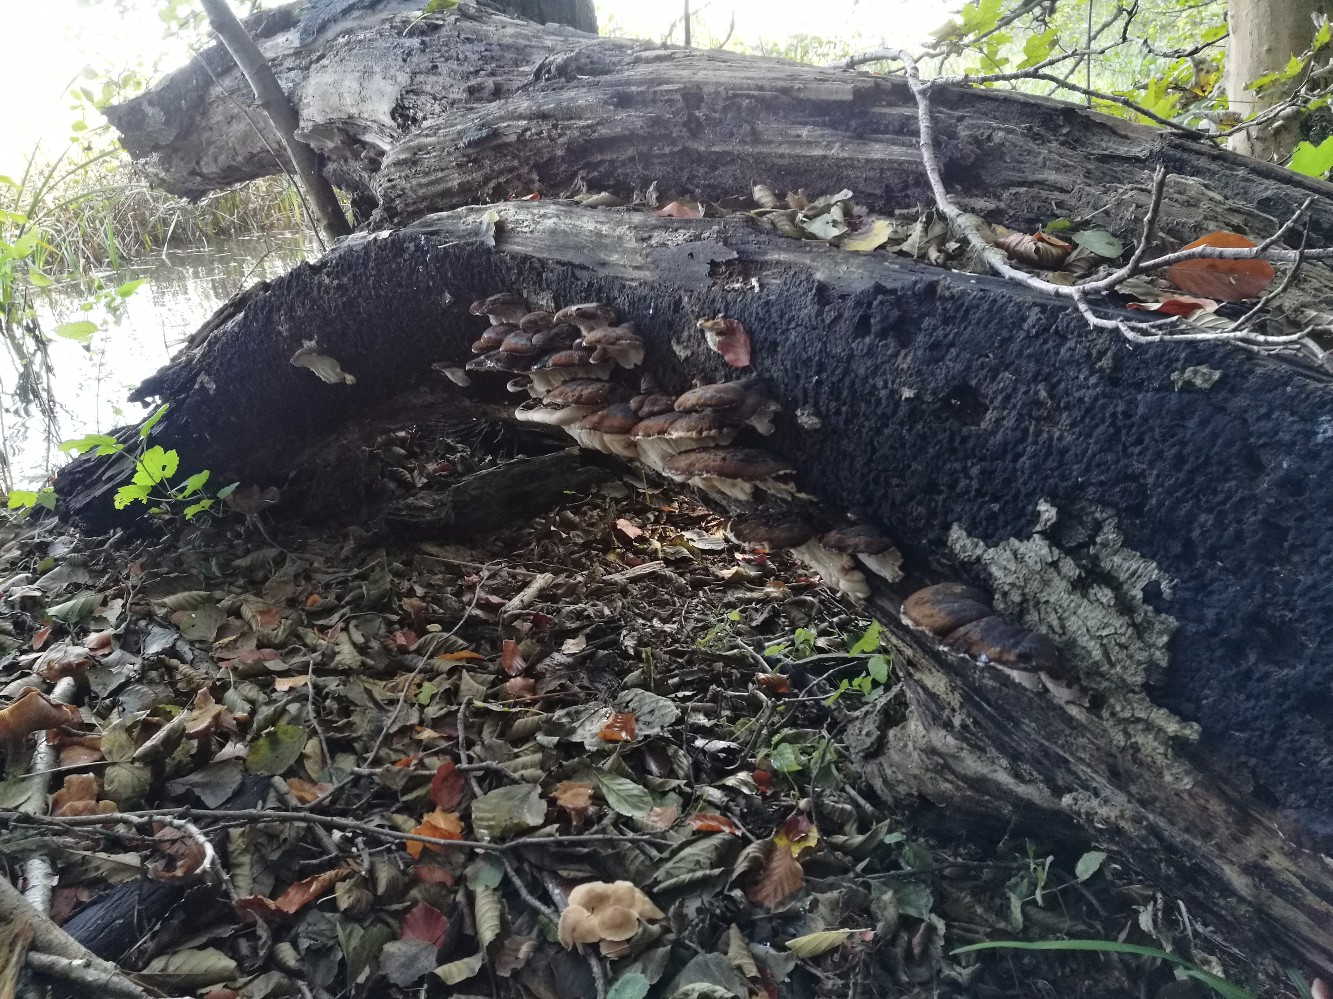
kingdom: Fungi
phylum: Basidiomycota
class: Agaricomycetes
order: Polyporales
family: Ischnodermataceae
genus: Ischnoderma
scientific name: Ischnoderma resinosum
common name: løv-tjæreporesvamp
